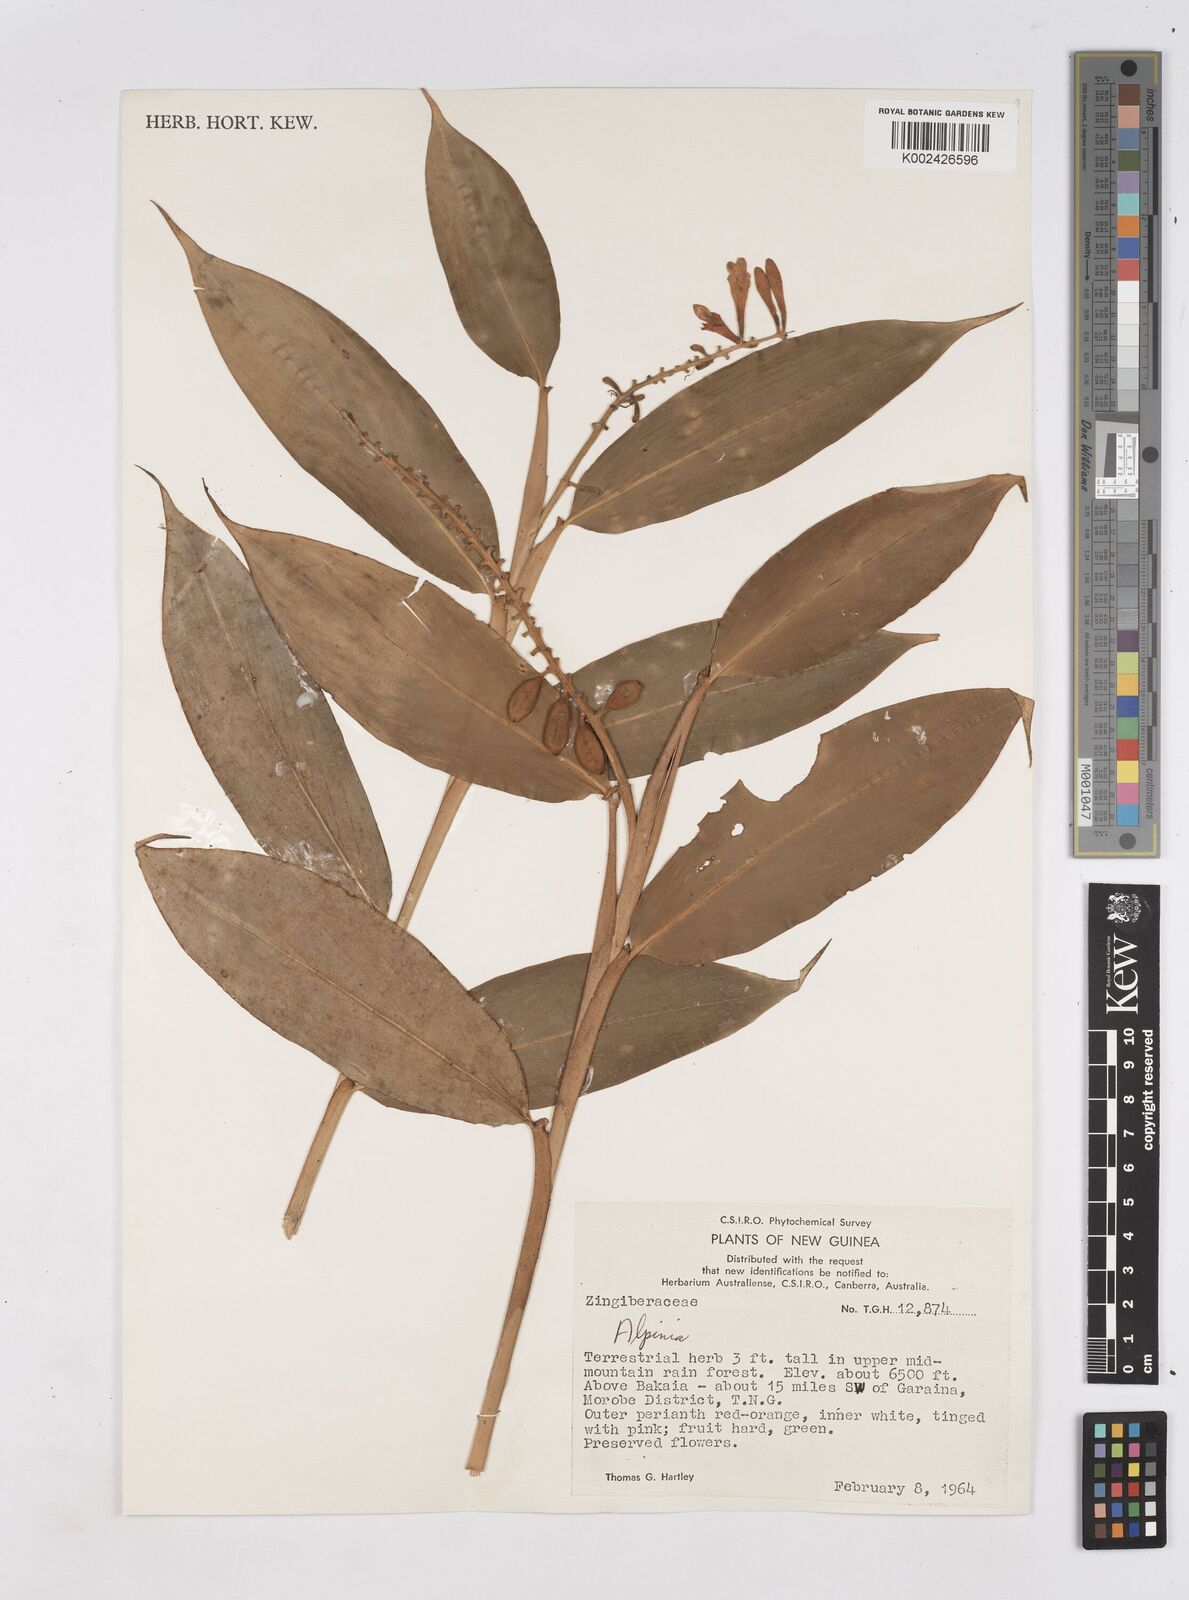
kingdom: Plantae
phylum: Tracheophyta
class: Liliopsida
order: Zingiberales
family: Zingiberaceae
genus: Riedelia
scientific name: Riedelia
